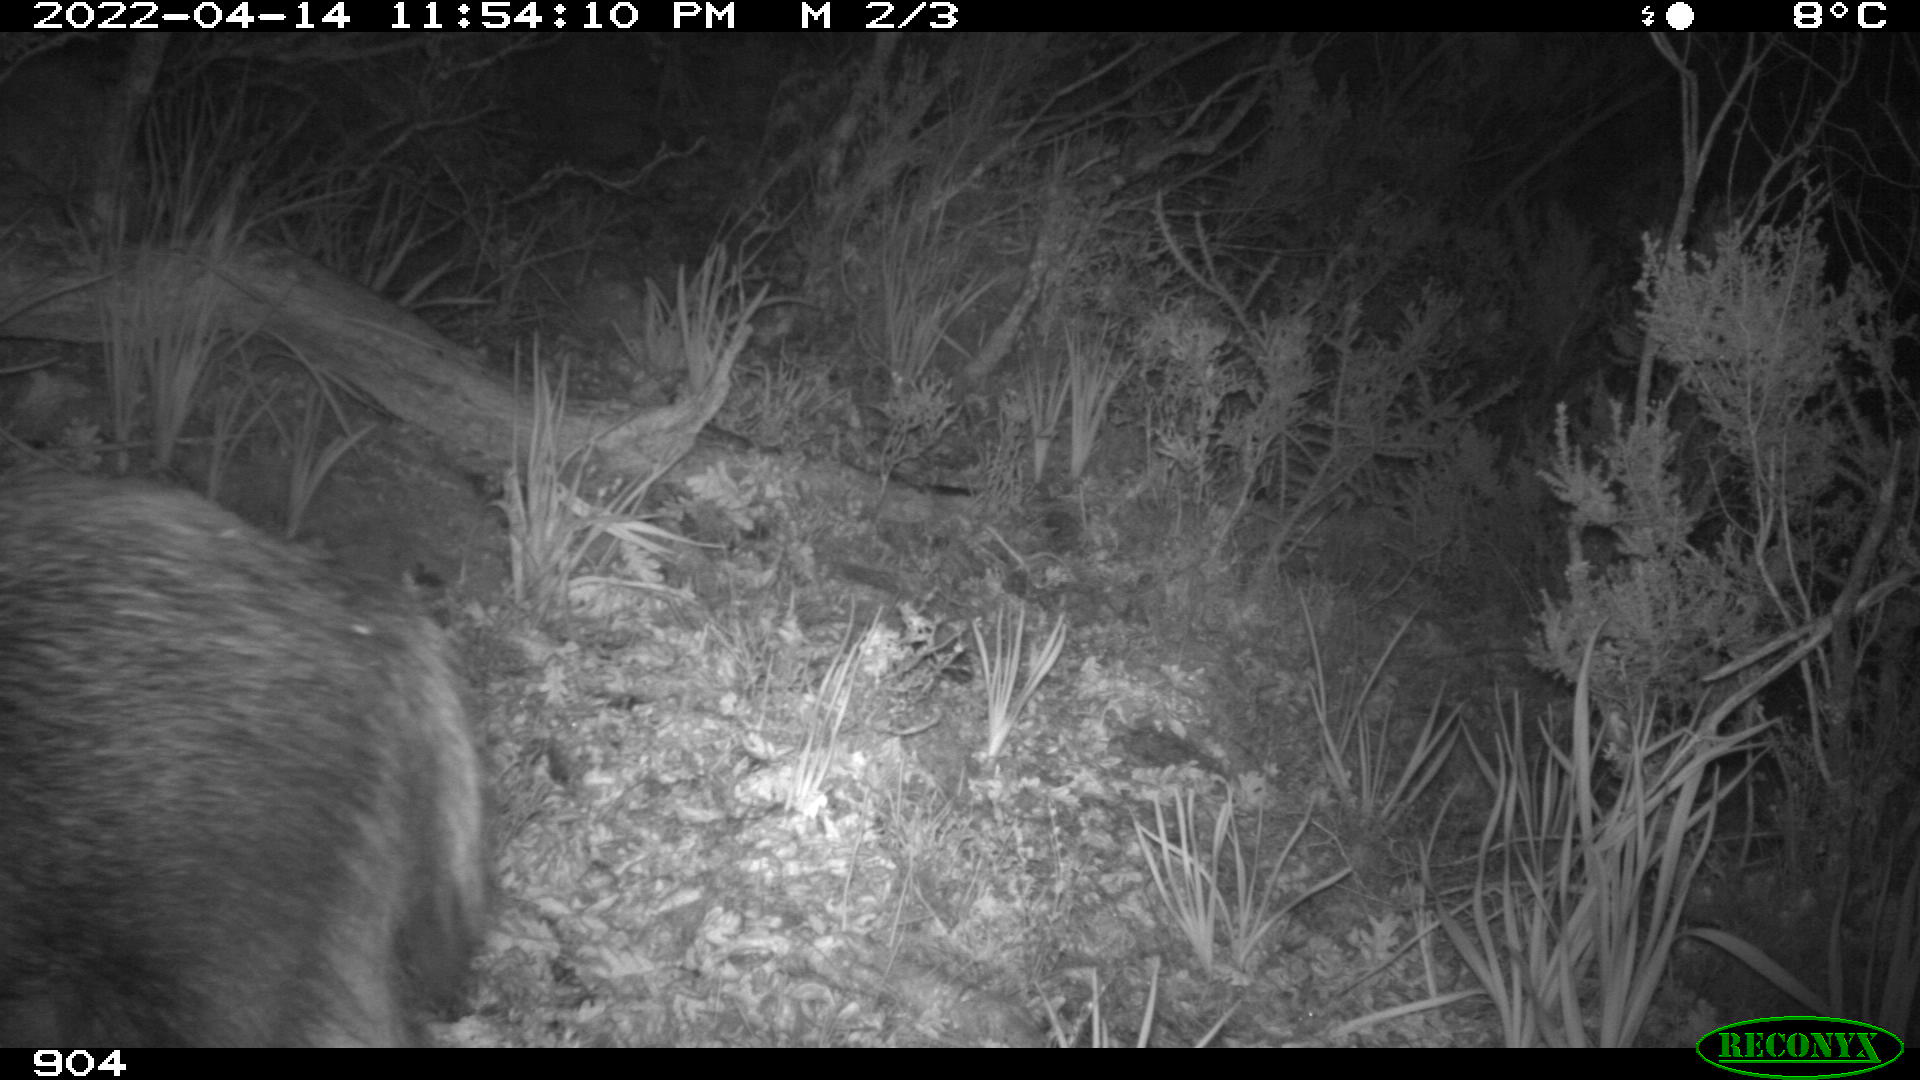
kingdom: Animalia
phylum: Chordata
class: Mammalia
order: Artiodactyla
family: Suidae
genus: Sus
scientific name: Sus scrofa
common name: Wild boar
